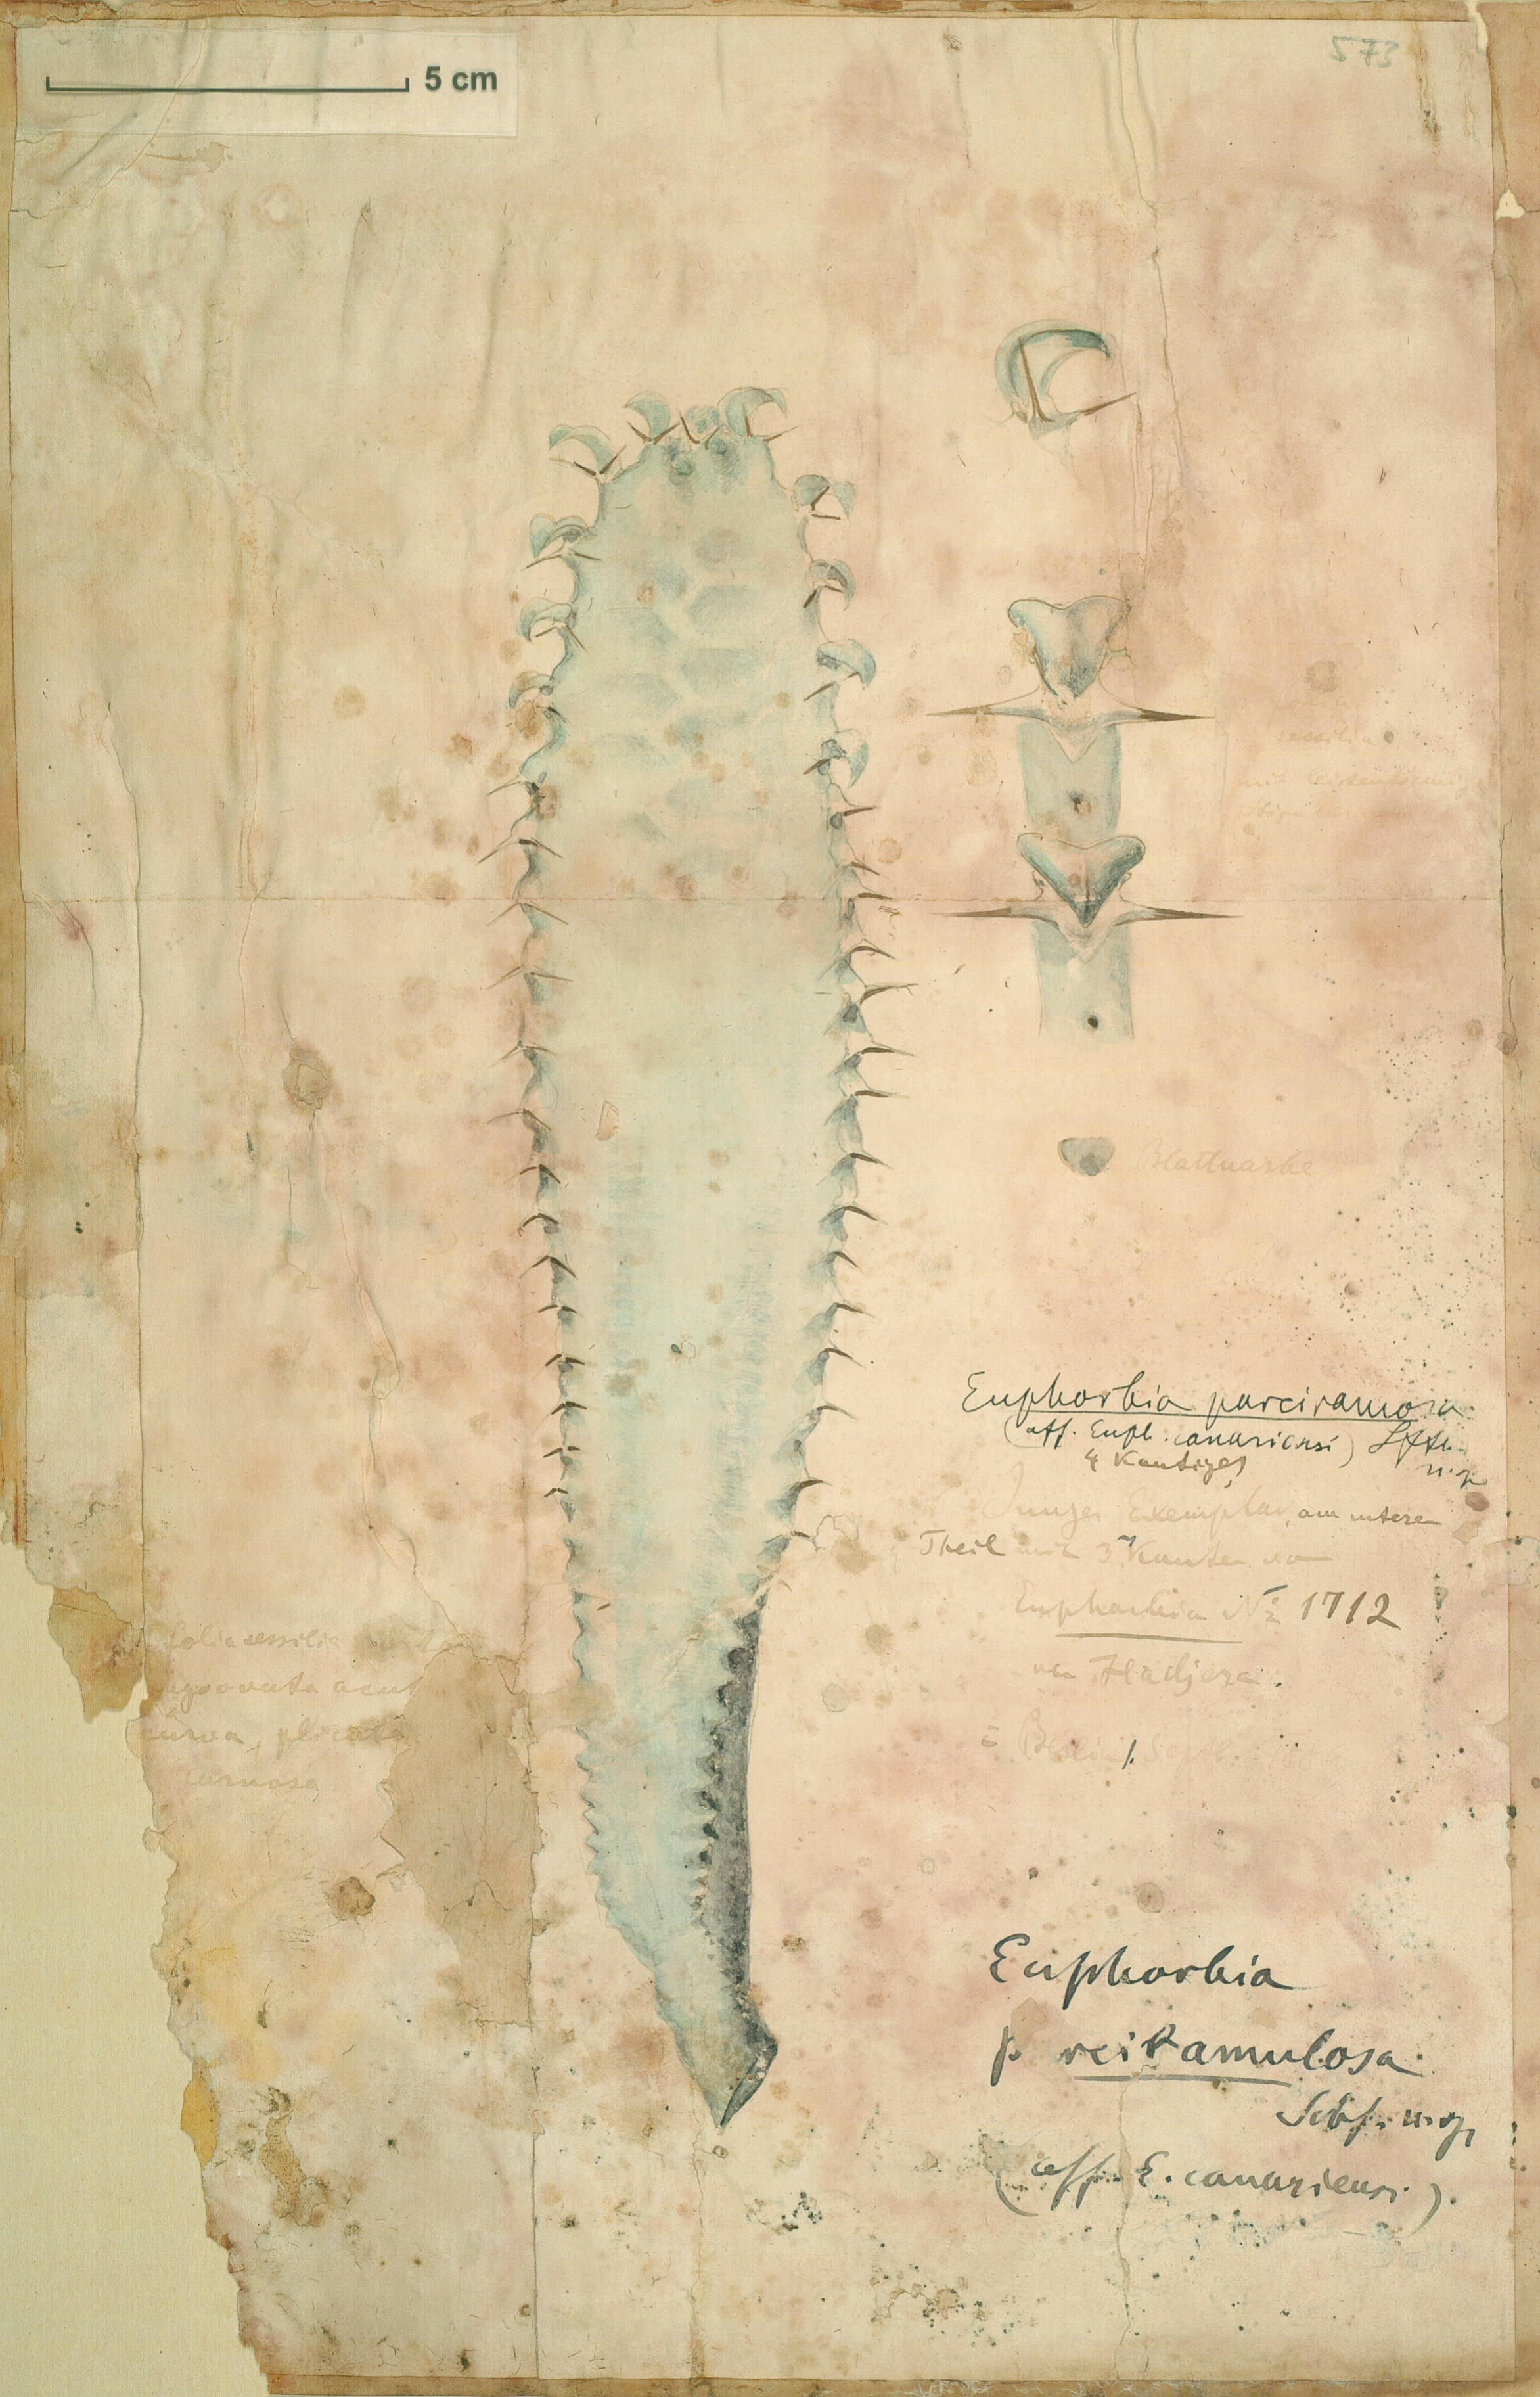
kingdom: Plantae
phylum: Tracheophyta
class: Magnoliopsida
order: Malpighiales
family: Euphorbiaceae
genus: Euphorbia
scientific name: Euphorbia parciramulosa
